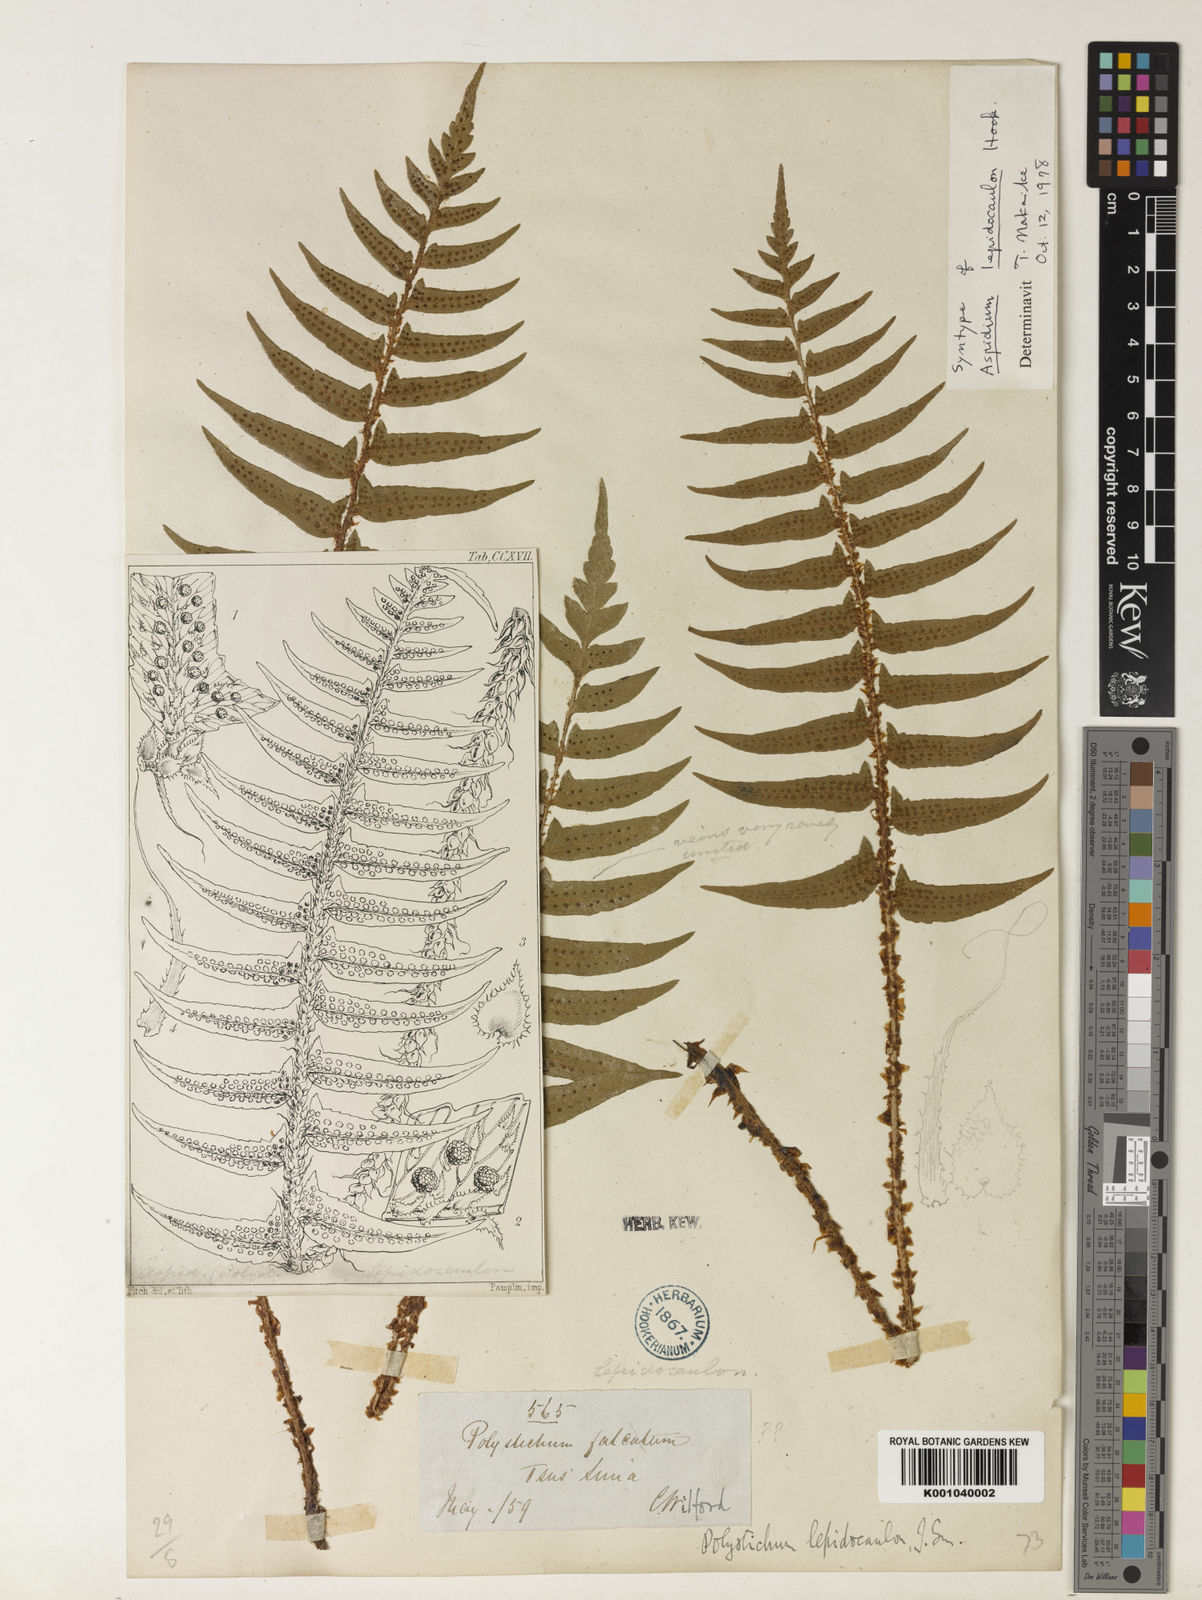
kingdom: Plantae
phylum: Tracheophyta
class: Polypodiopsida
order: Polypodiales
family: Dryopteridaceae
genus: Polystichum
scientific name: Polystichum lepidocaulon
